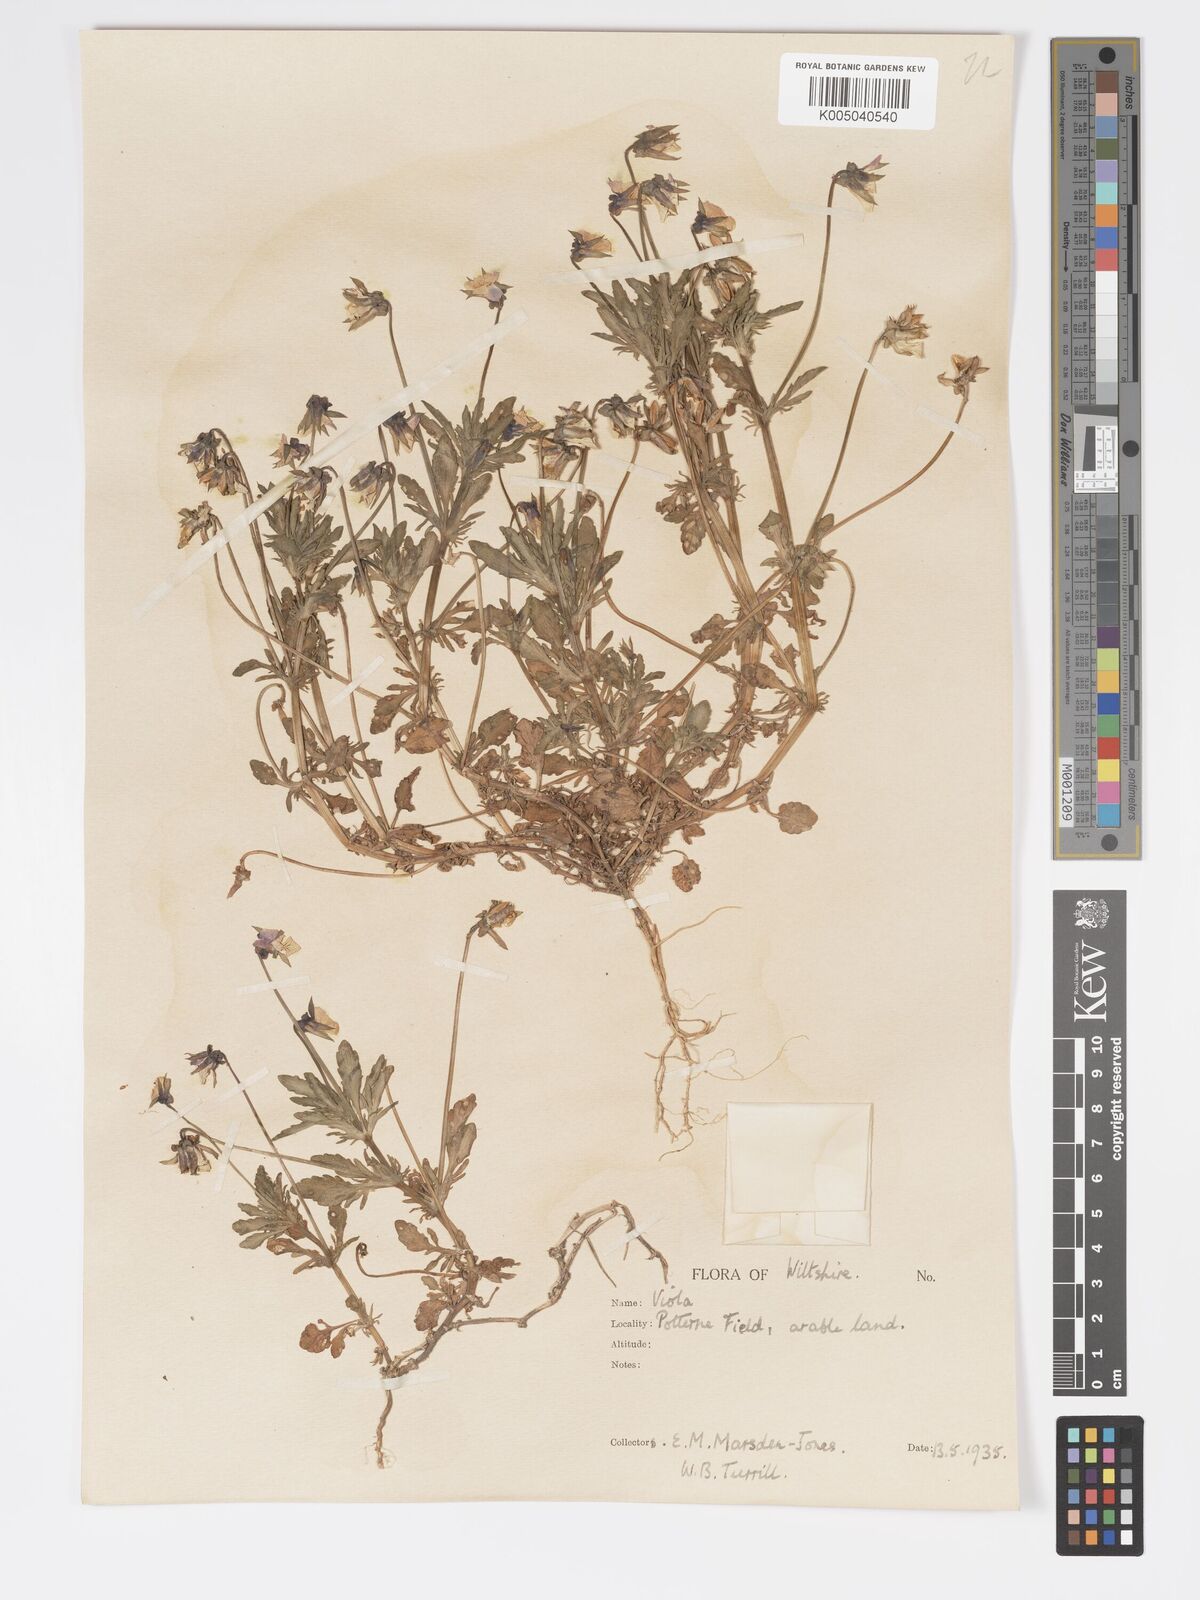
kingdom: Plantae
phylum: Tracheophyta
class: Magnoliopsida
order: Malpighiales
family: Violaceae
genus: Viola
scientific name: Viola
